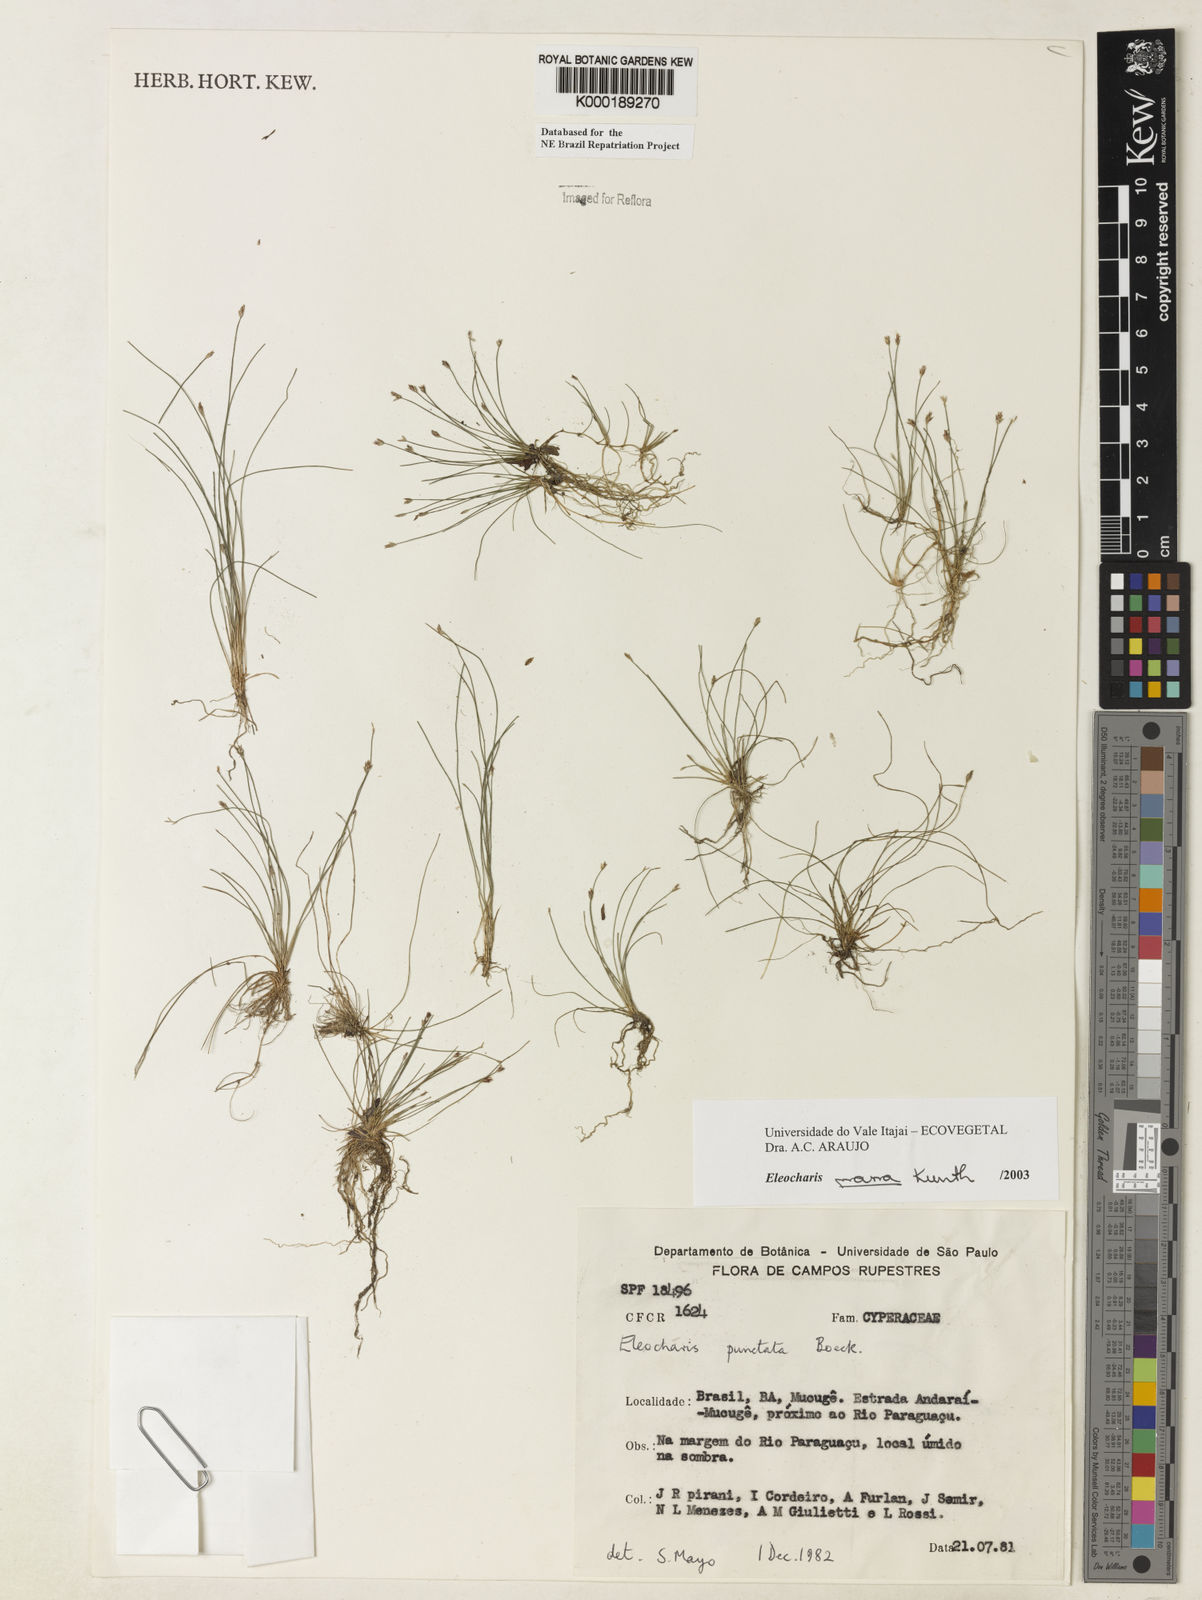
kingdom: Plantae
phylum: Tracheophyta
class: Liliopsida
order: Poales
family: Cyperaceae
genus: Eleocharis
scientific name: Eleocharis nana
